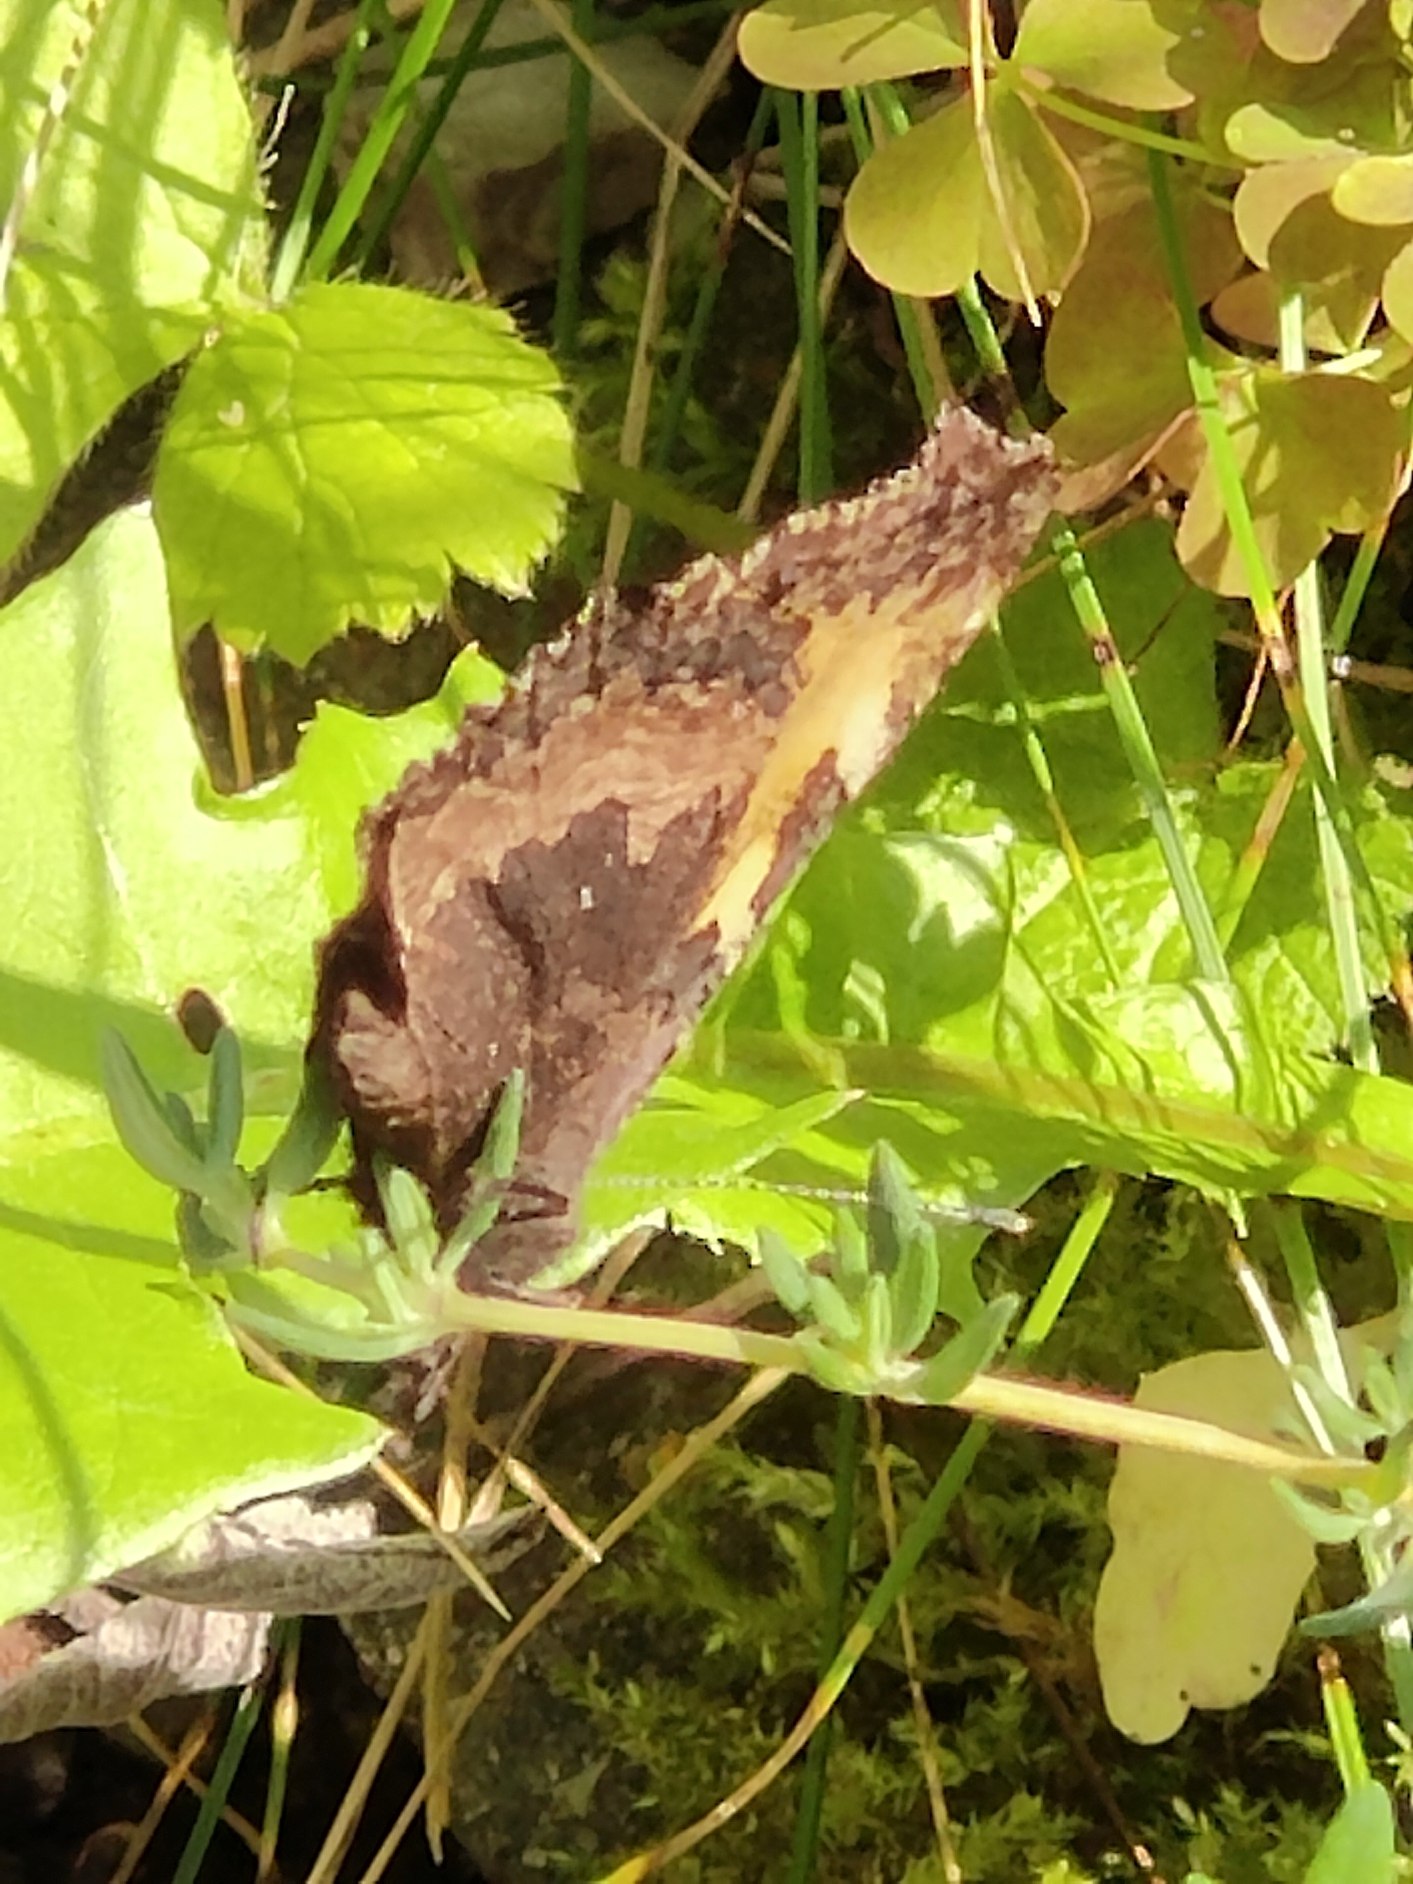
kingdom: Animalia
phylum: Arthropoda
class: Insecta
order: Lepidoptera
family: Nymphalidae
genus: Aglais
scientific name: Aglais urticae
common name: Nældens takvinge
